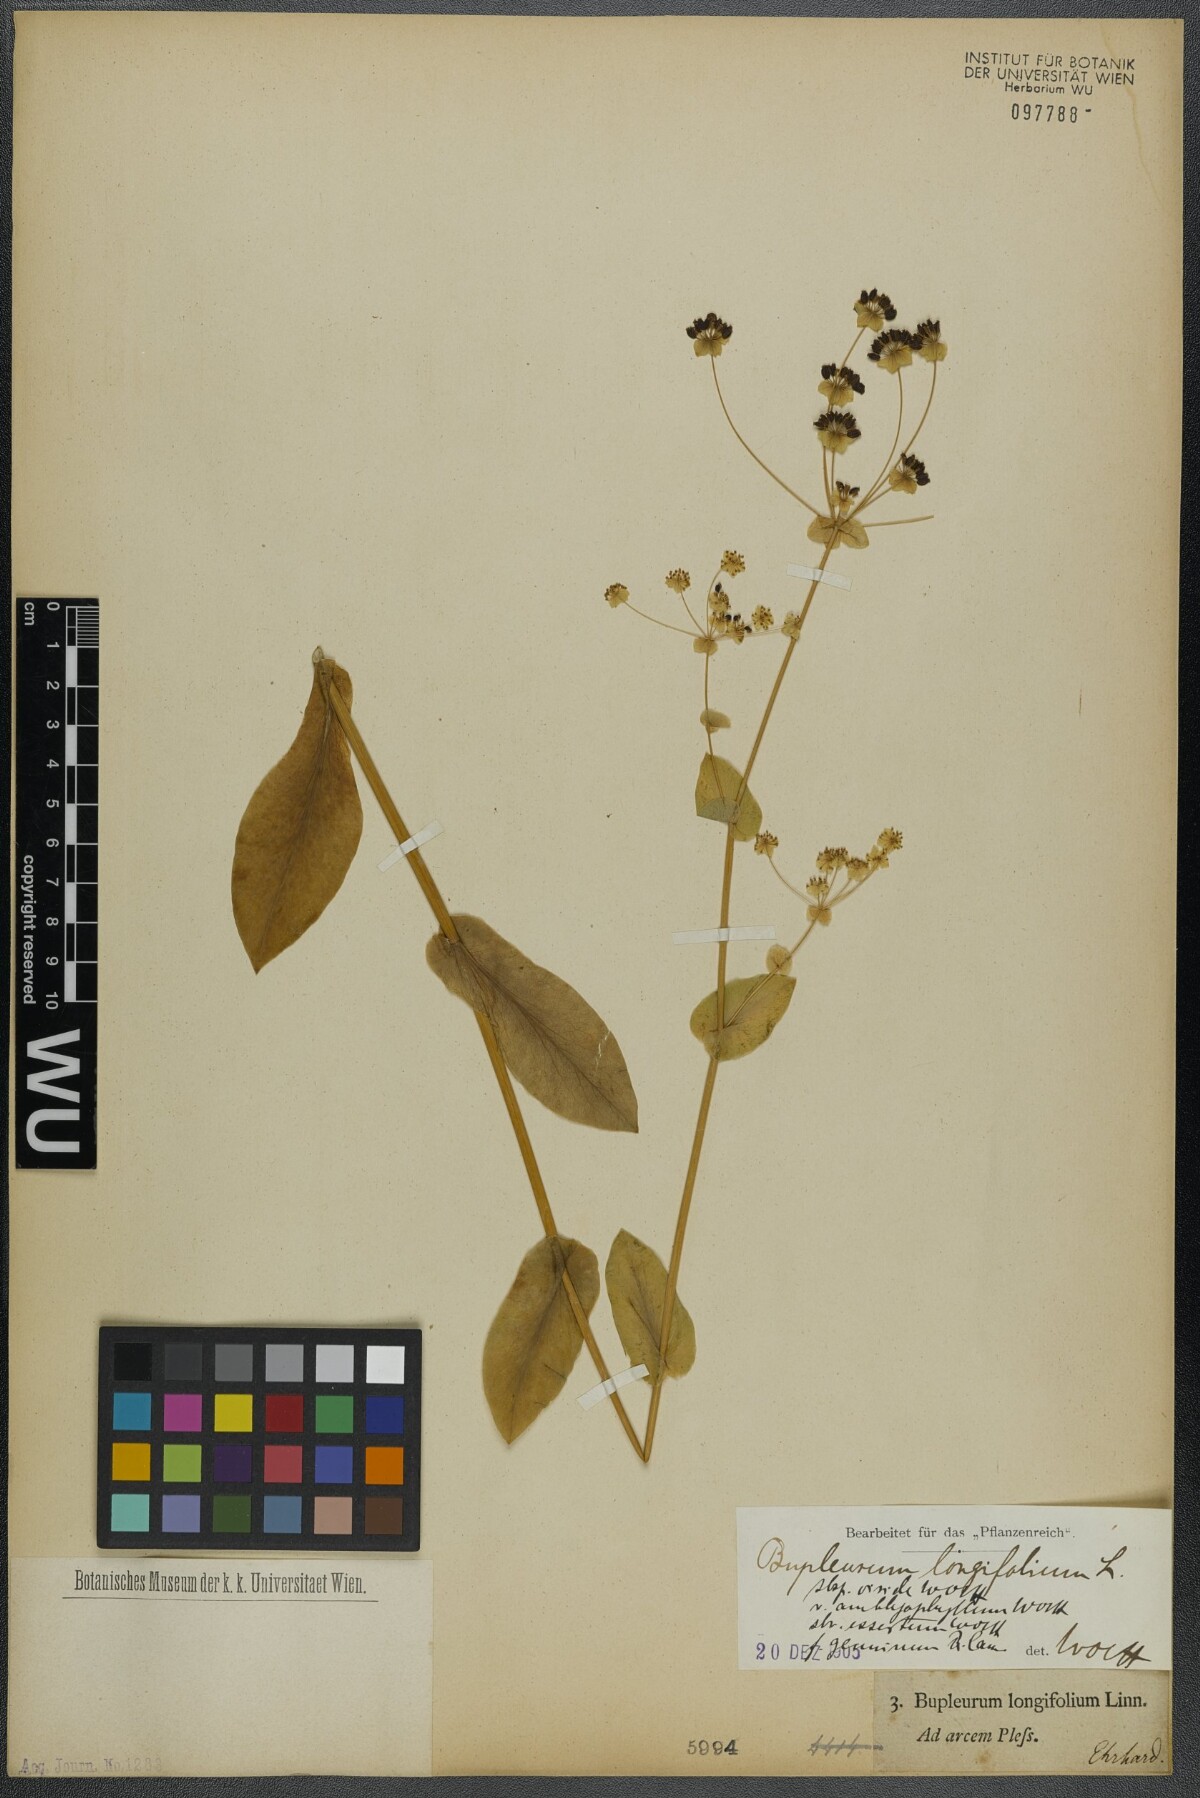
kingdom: Plantae
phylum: Tracheophyta
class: Magnoliopsida
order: Apiales
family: Apiaceae
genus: Bupleurum
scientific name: Bupleurum longifolium
